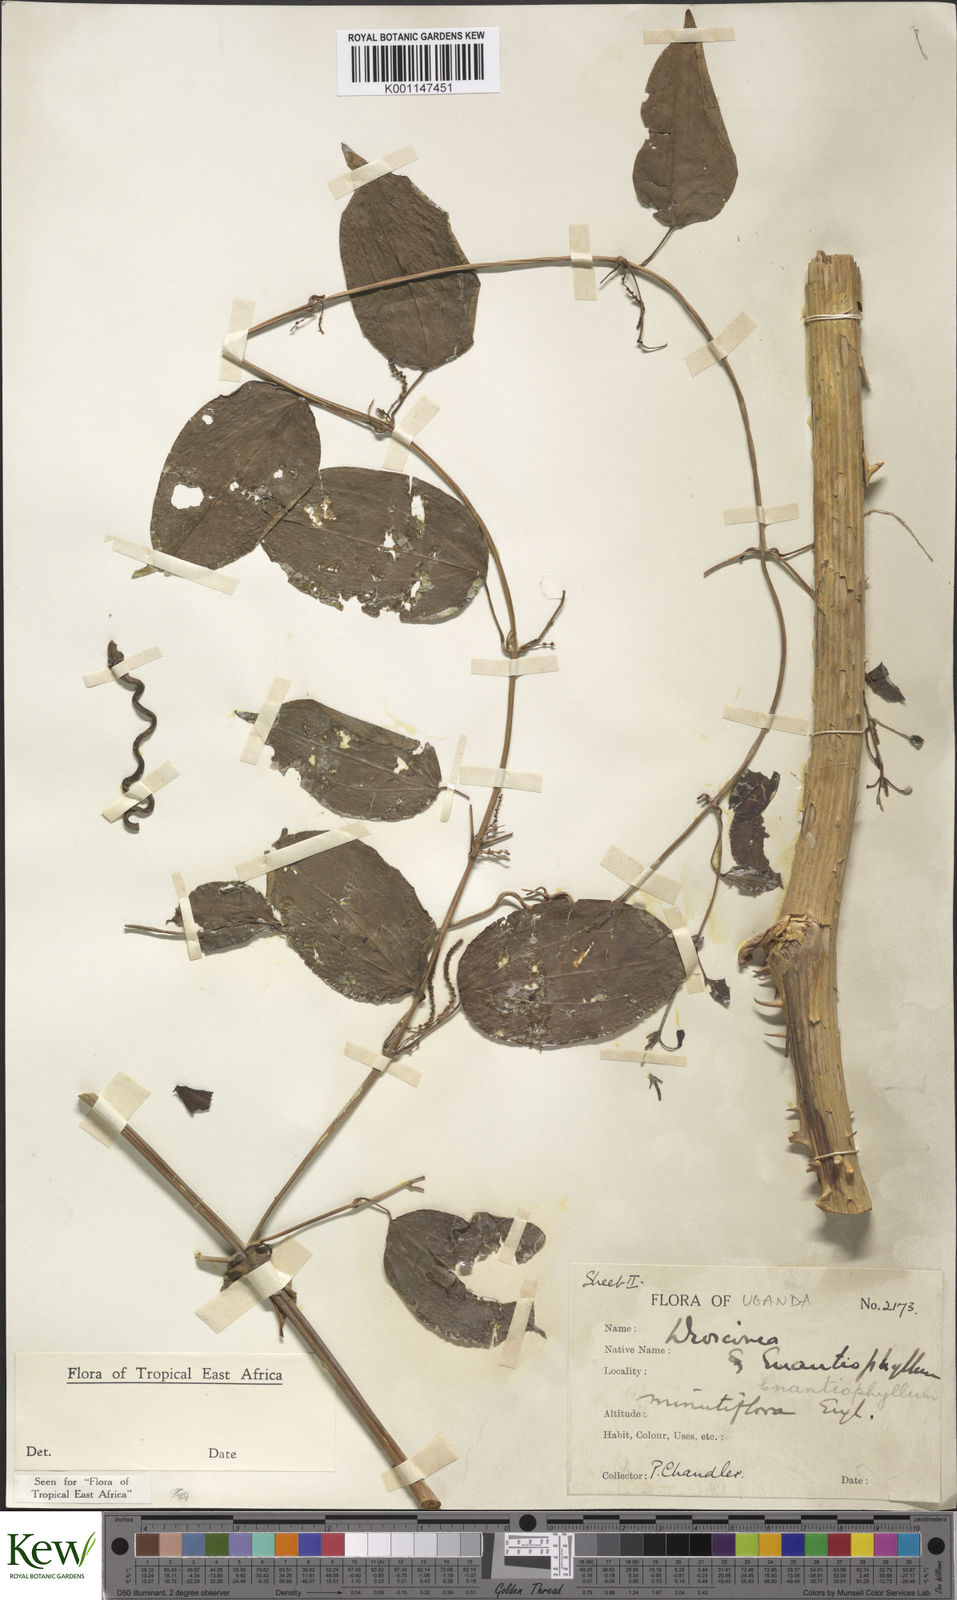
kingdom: Plantae
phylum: Tracheophyta
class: Liliopsida
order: Dioscoreales
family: Dioscoreaceae
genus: Dioscorea
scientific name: Dioscorea baya
